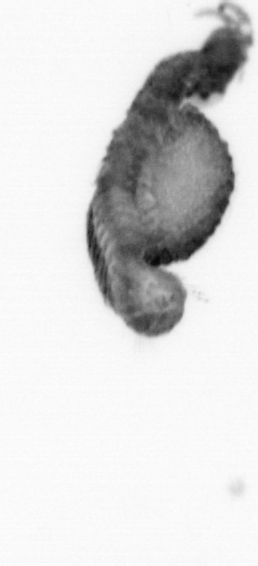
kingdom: Animalia
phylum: Annelida
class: Polychaeta
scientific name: Polychaeta
